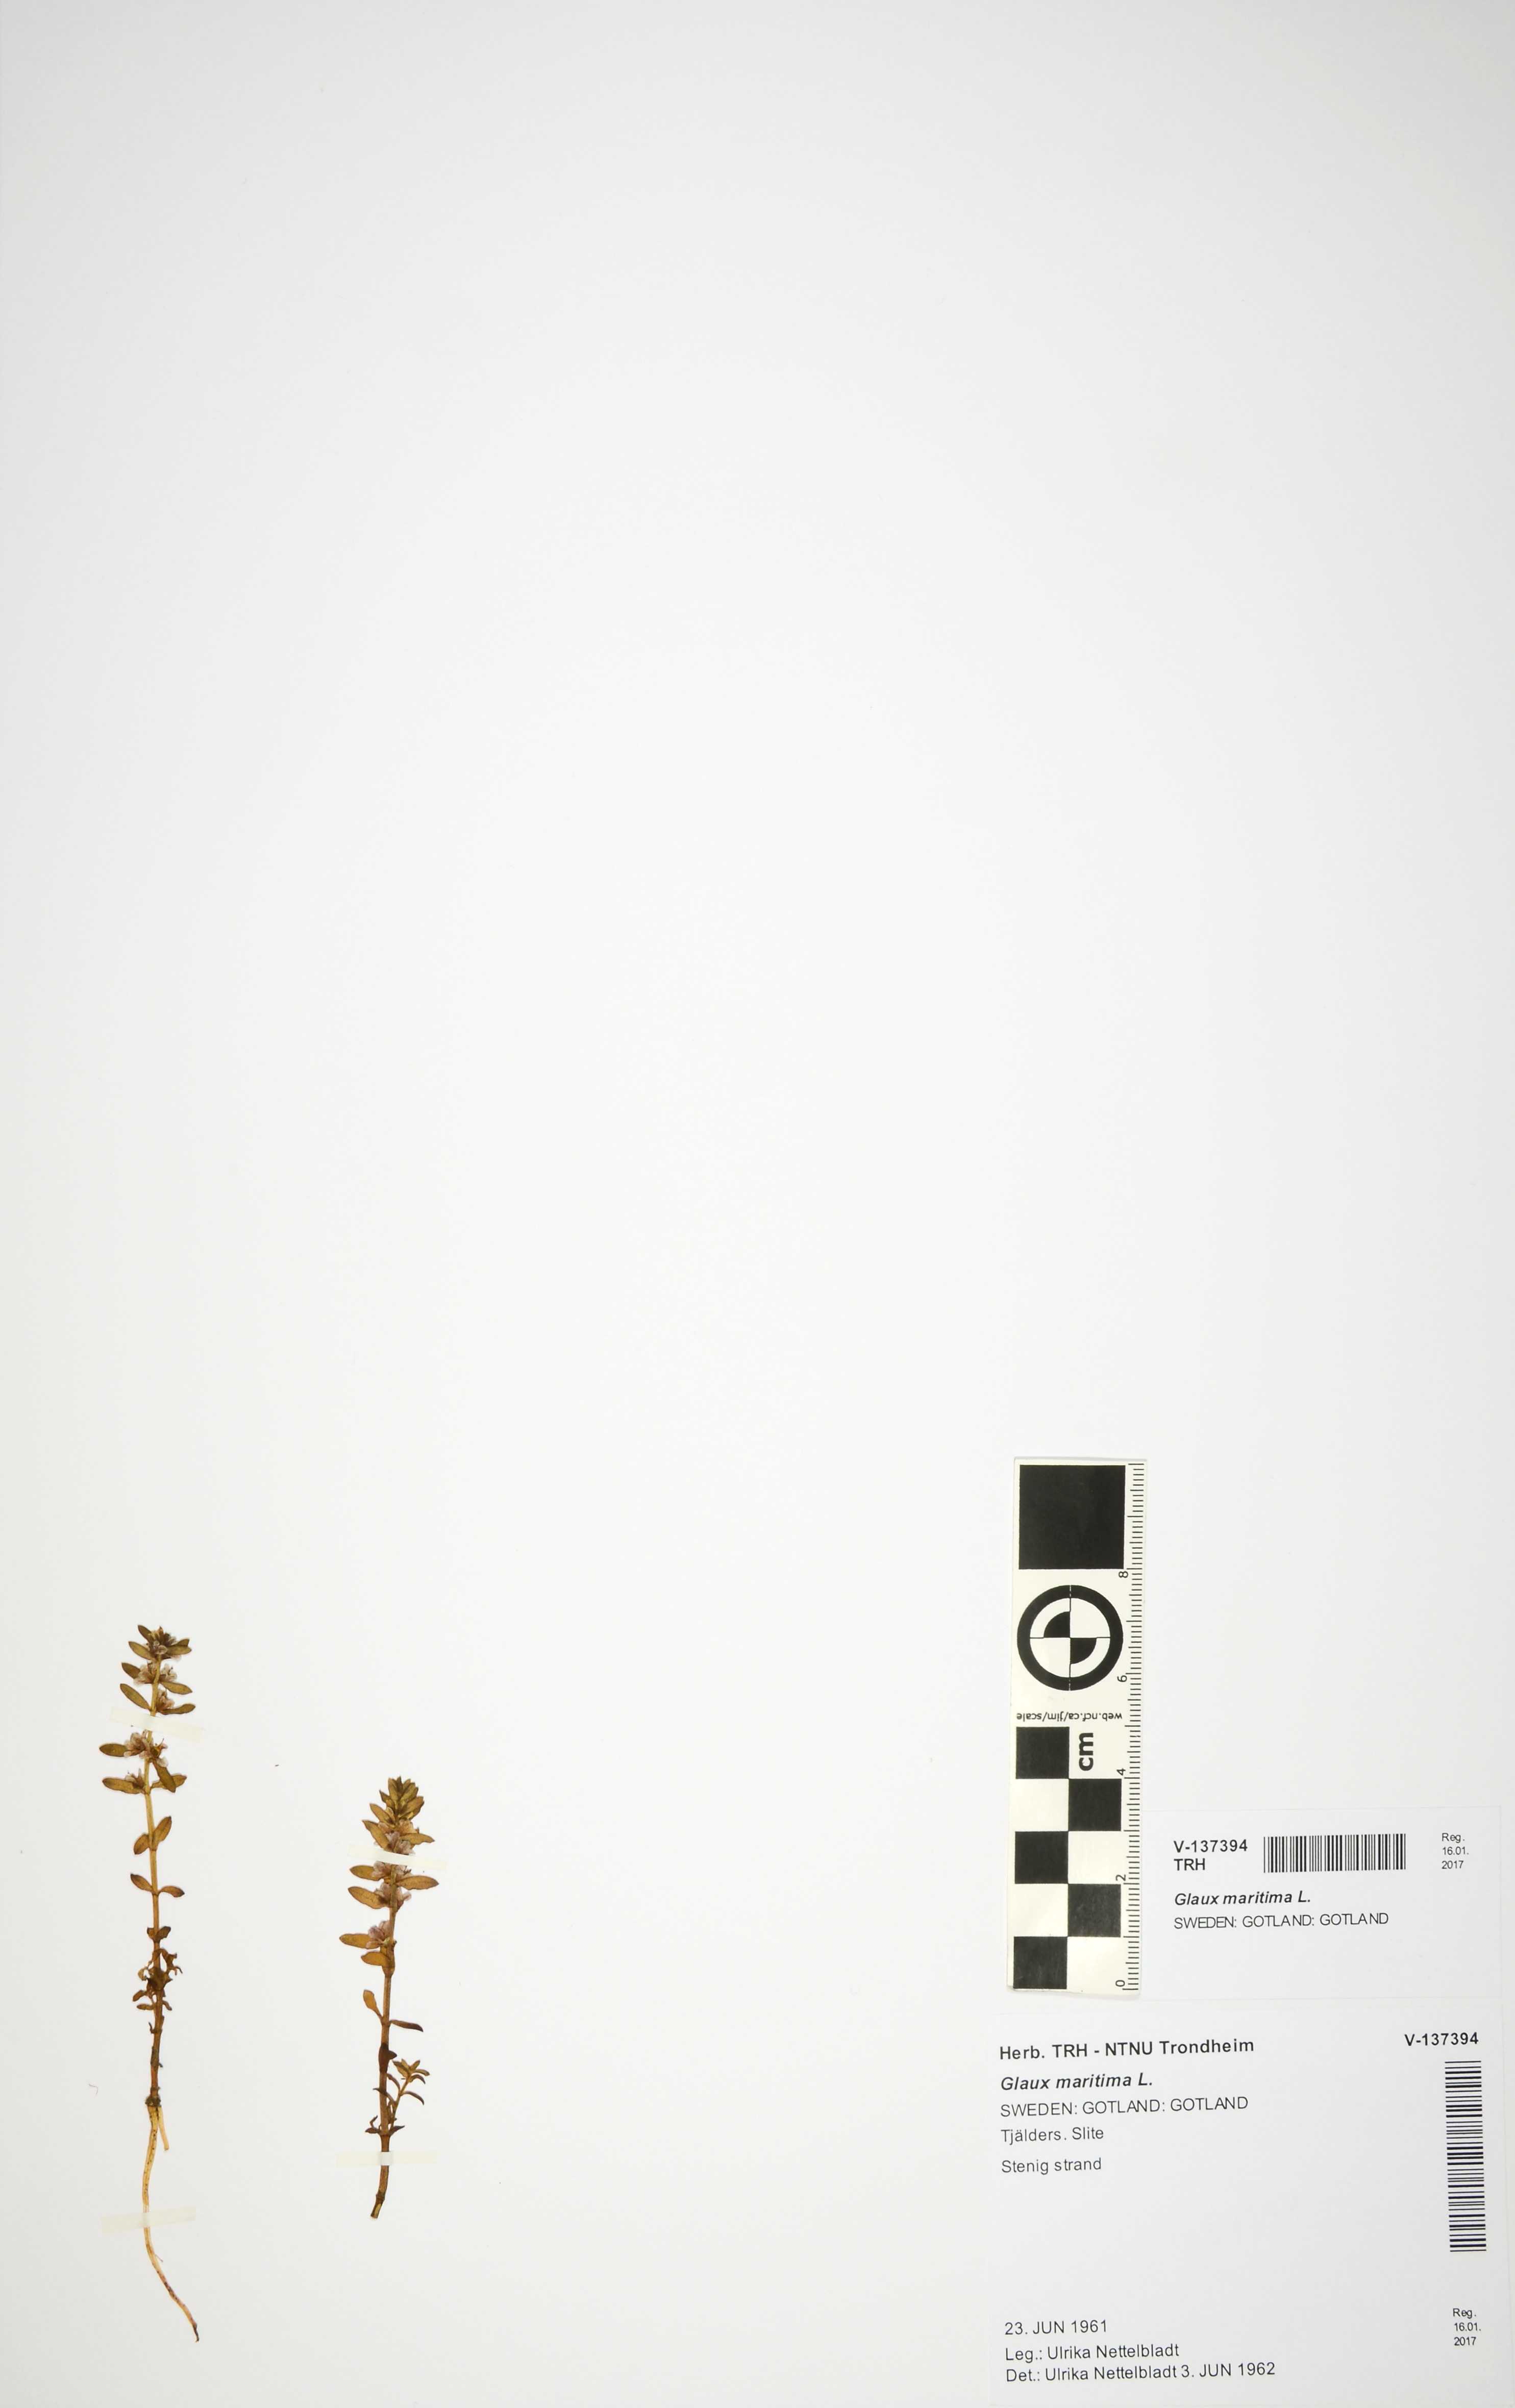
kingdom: Plantae
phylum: Tracheophyta
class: Magnoliopsida
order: Ericales
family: Primulaceae
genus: Lysimachia
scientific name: Lysimachia maritima
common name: Sea milkwort
